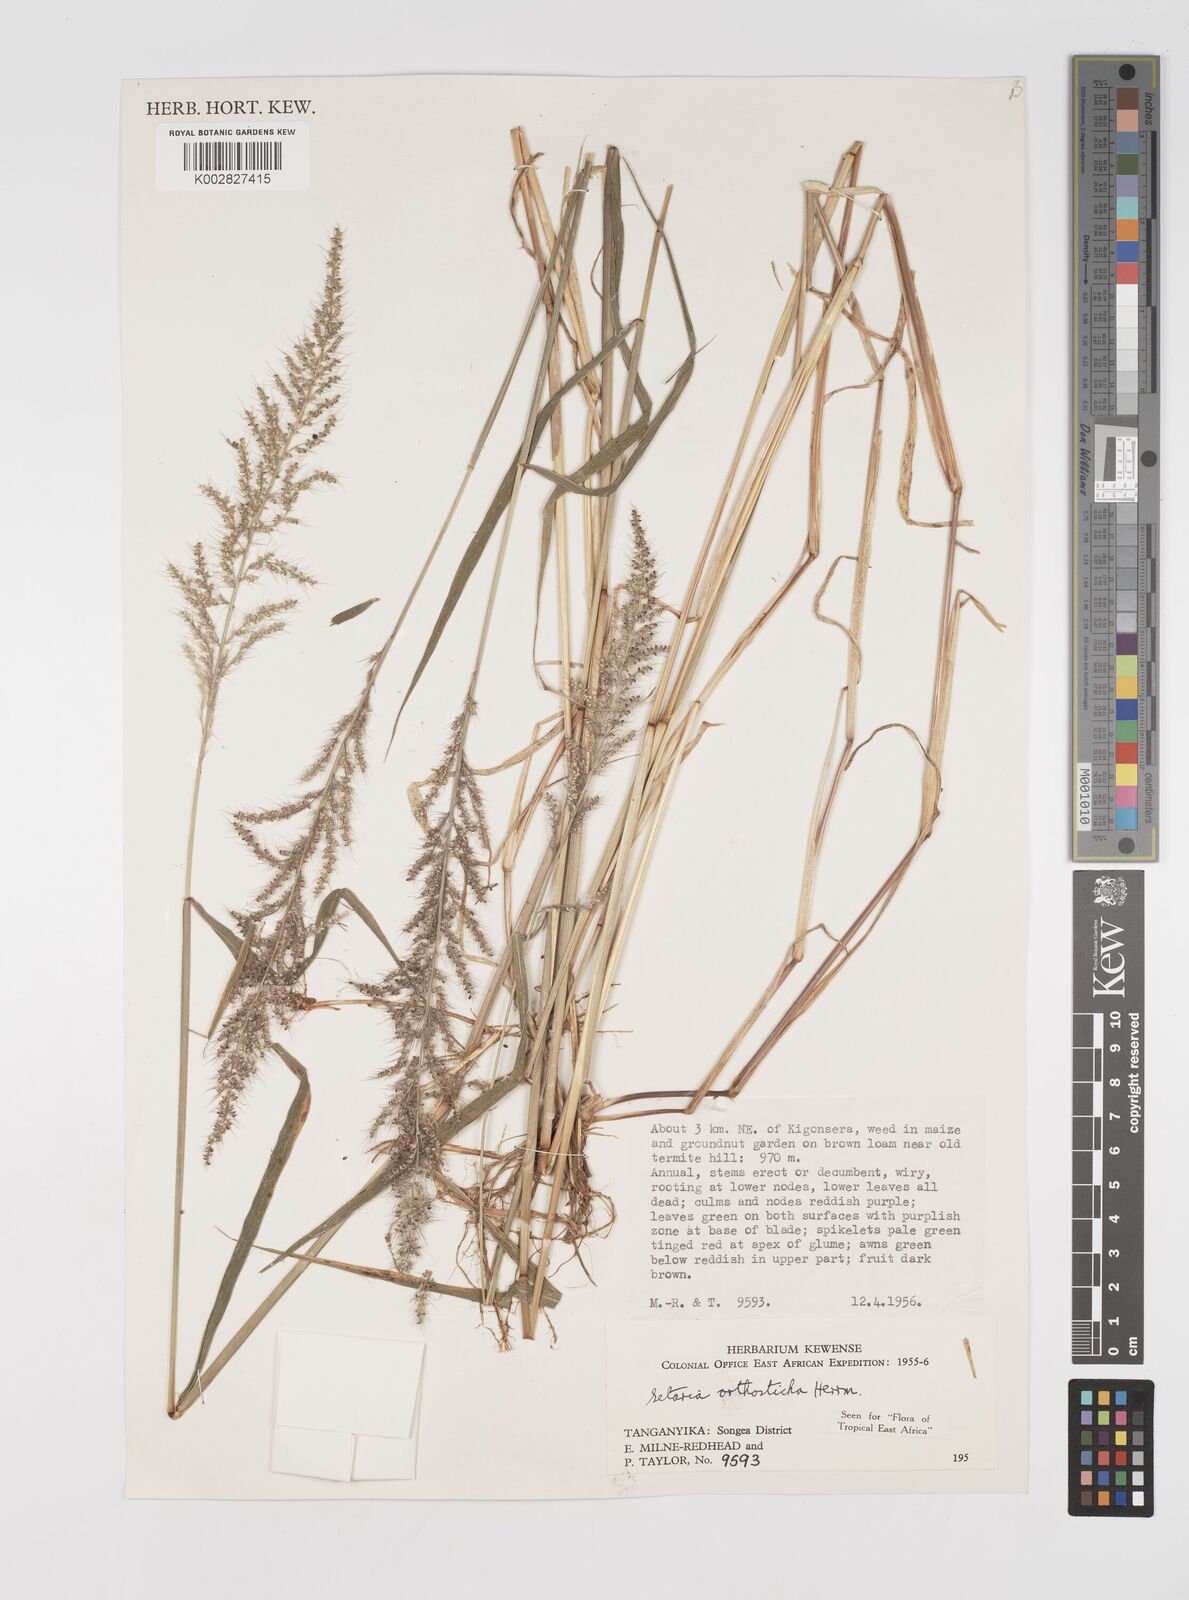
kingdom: Plantae
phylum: Tracheophyta
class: Liliopsida
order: Poales
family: Poaceae
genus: Setaria
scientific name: Setaria orthosticha
